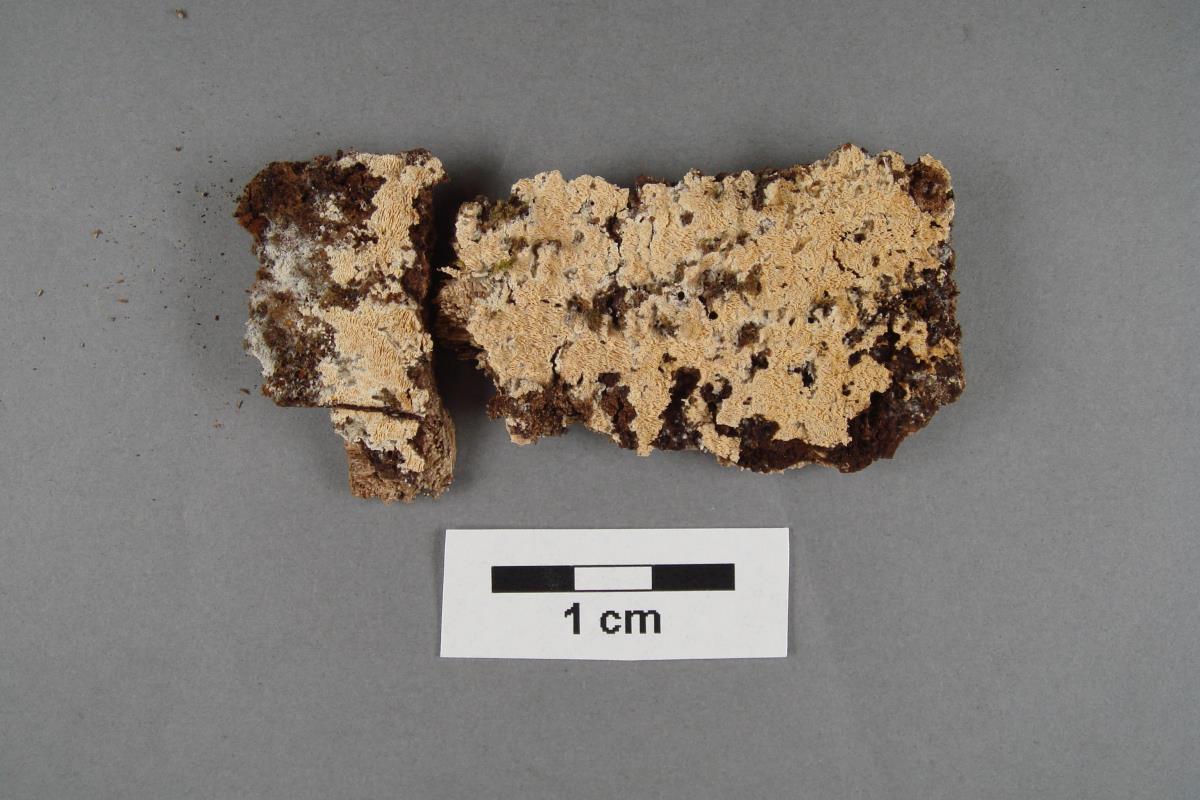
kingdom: Fungi
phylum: Basidiomycota
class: Agaricomycetes
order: Hymenochaetales
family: Schizoporaceae
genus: Xylodon
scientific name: Xylodon raduloides
